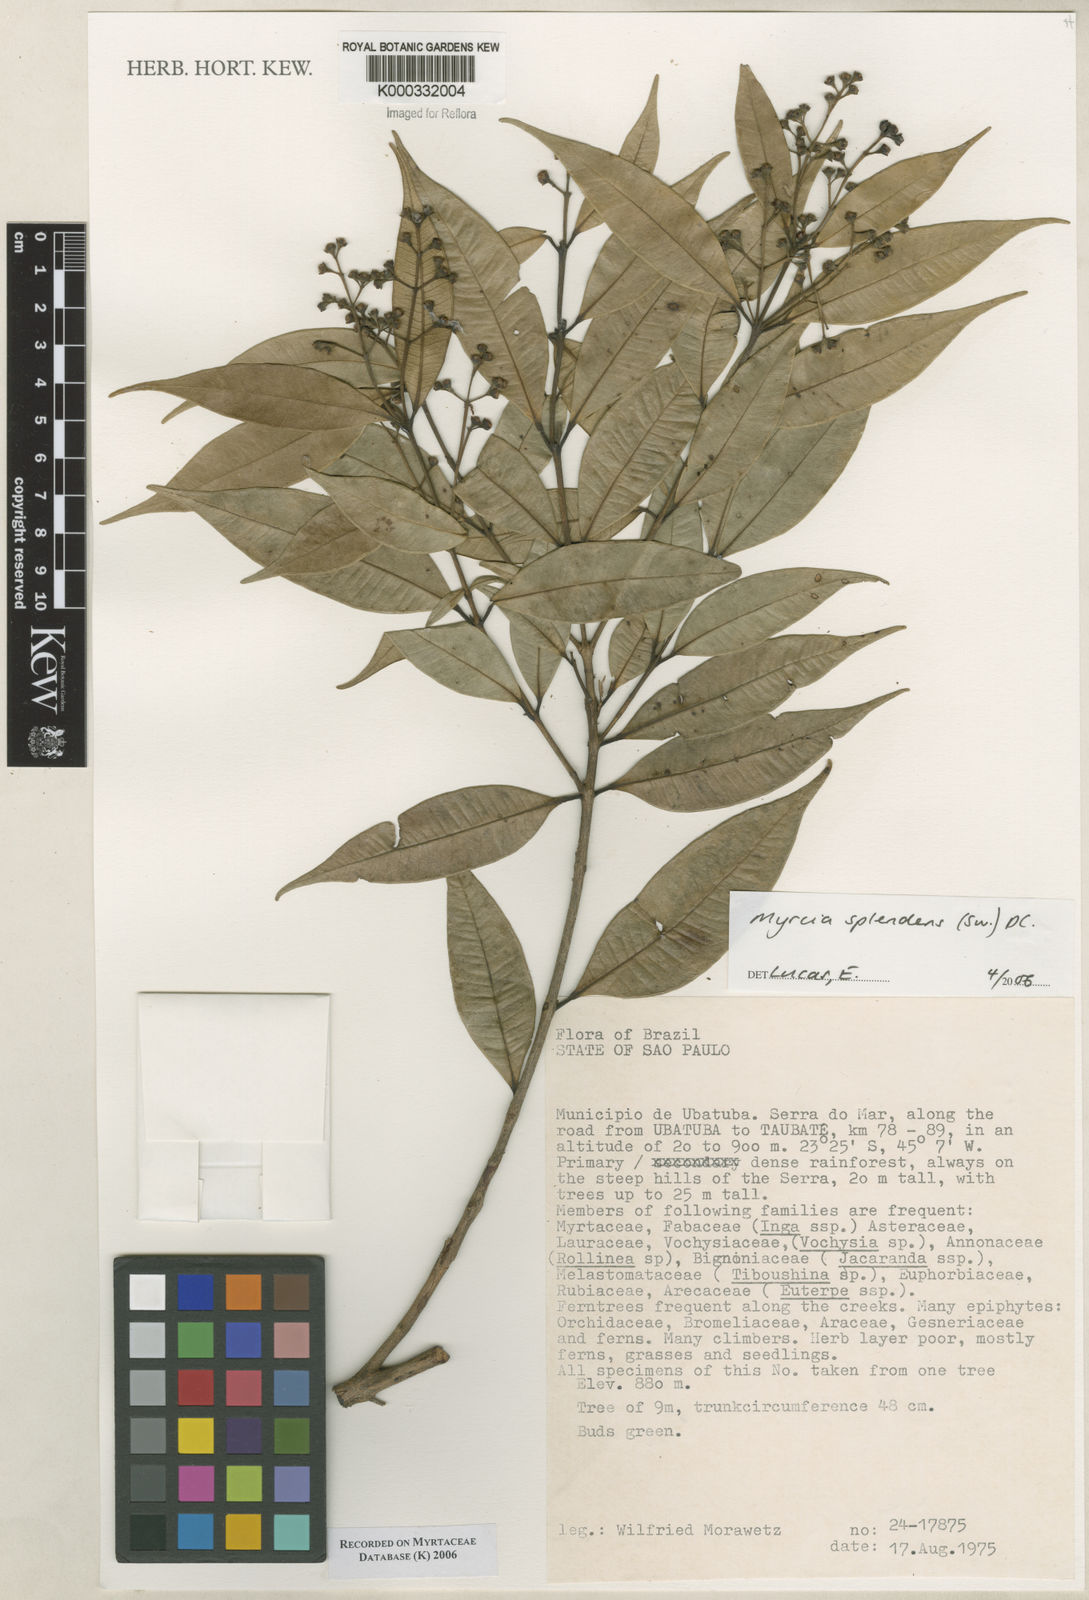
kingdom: Plantae
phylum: Tracheophyta
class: Magnoliopsida
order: Myrtales
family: Myrtaceae
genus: Myrcia
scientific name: Myrcia splendens
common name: Surinam cherry
